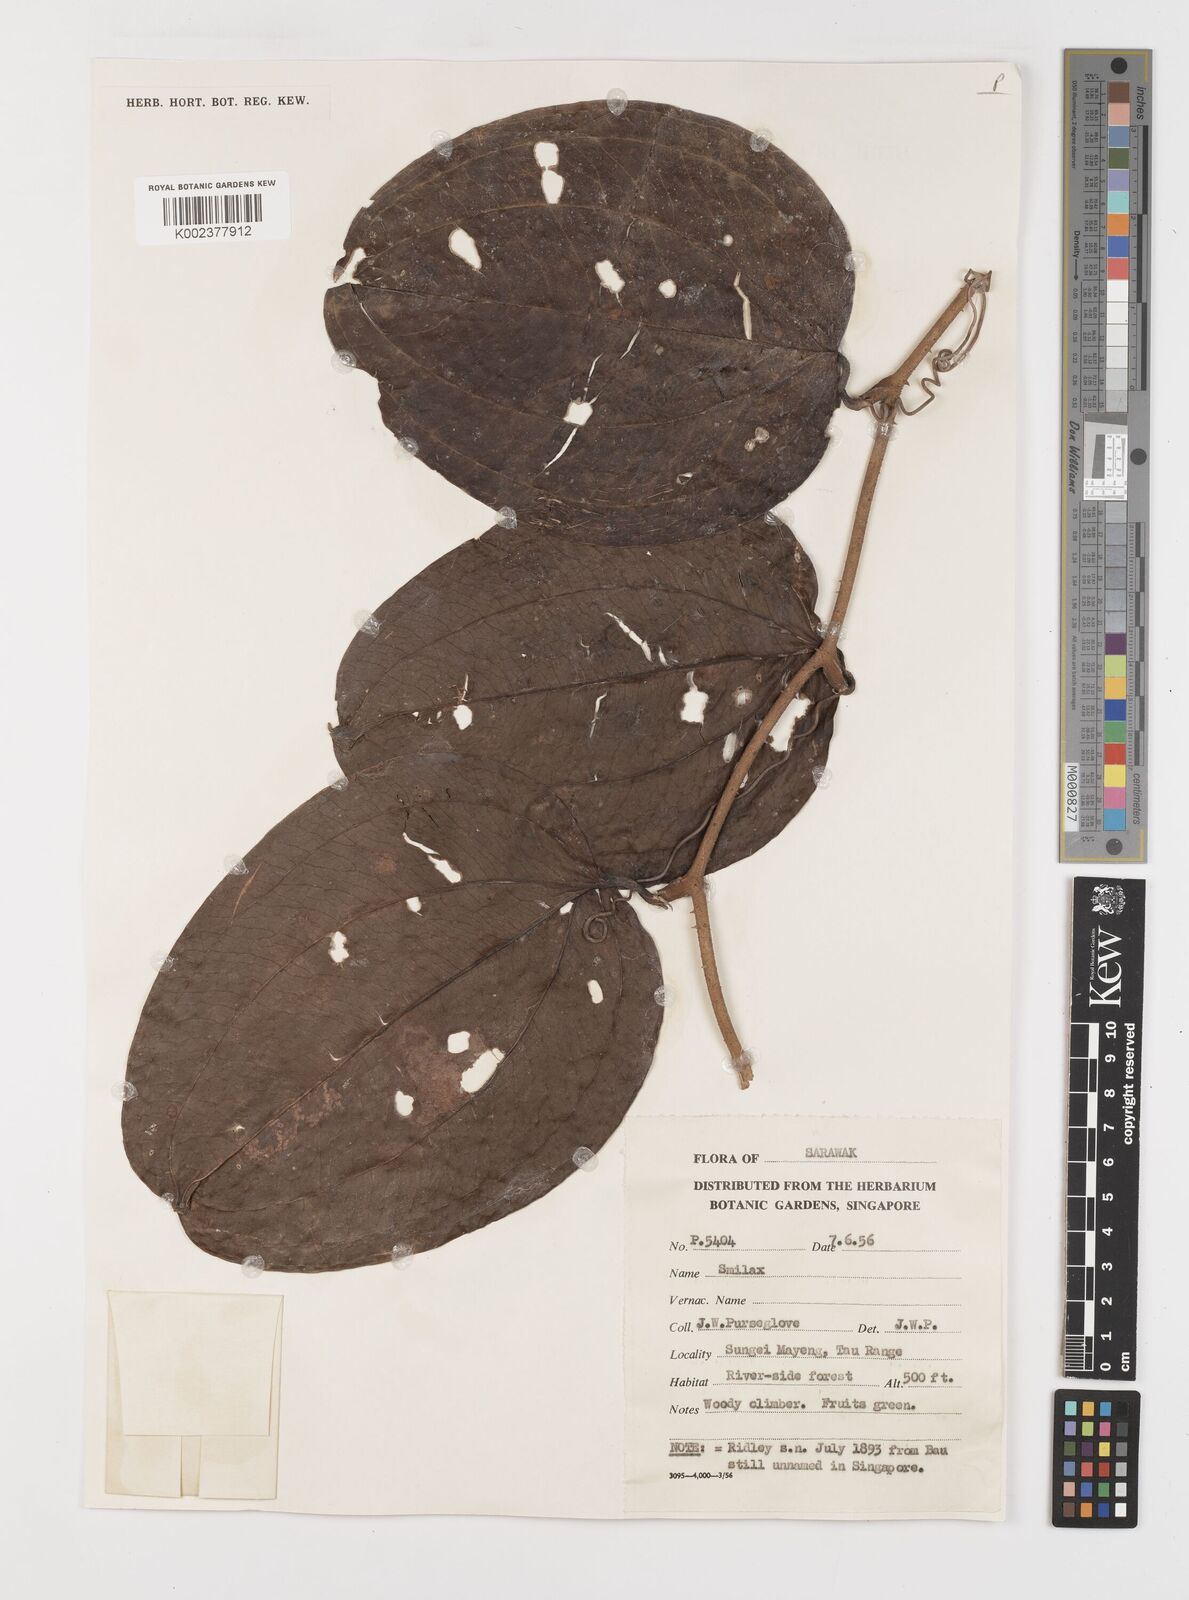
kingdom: Plantae
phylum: Tracheophyta
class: Liliopsida
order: Liliales
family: Smilacaceae
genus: Smilax
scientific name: Smilax
